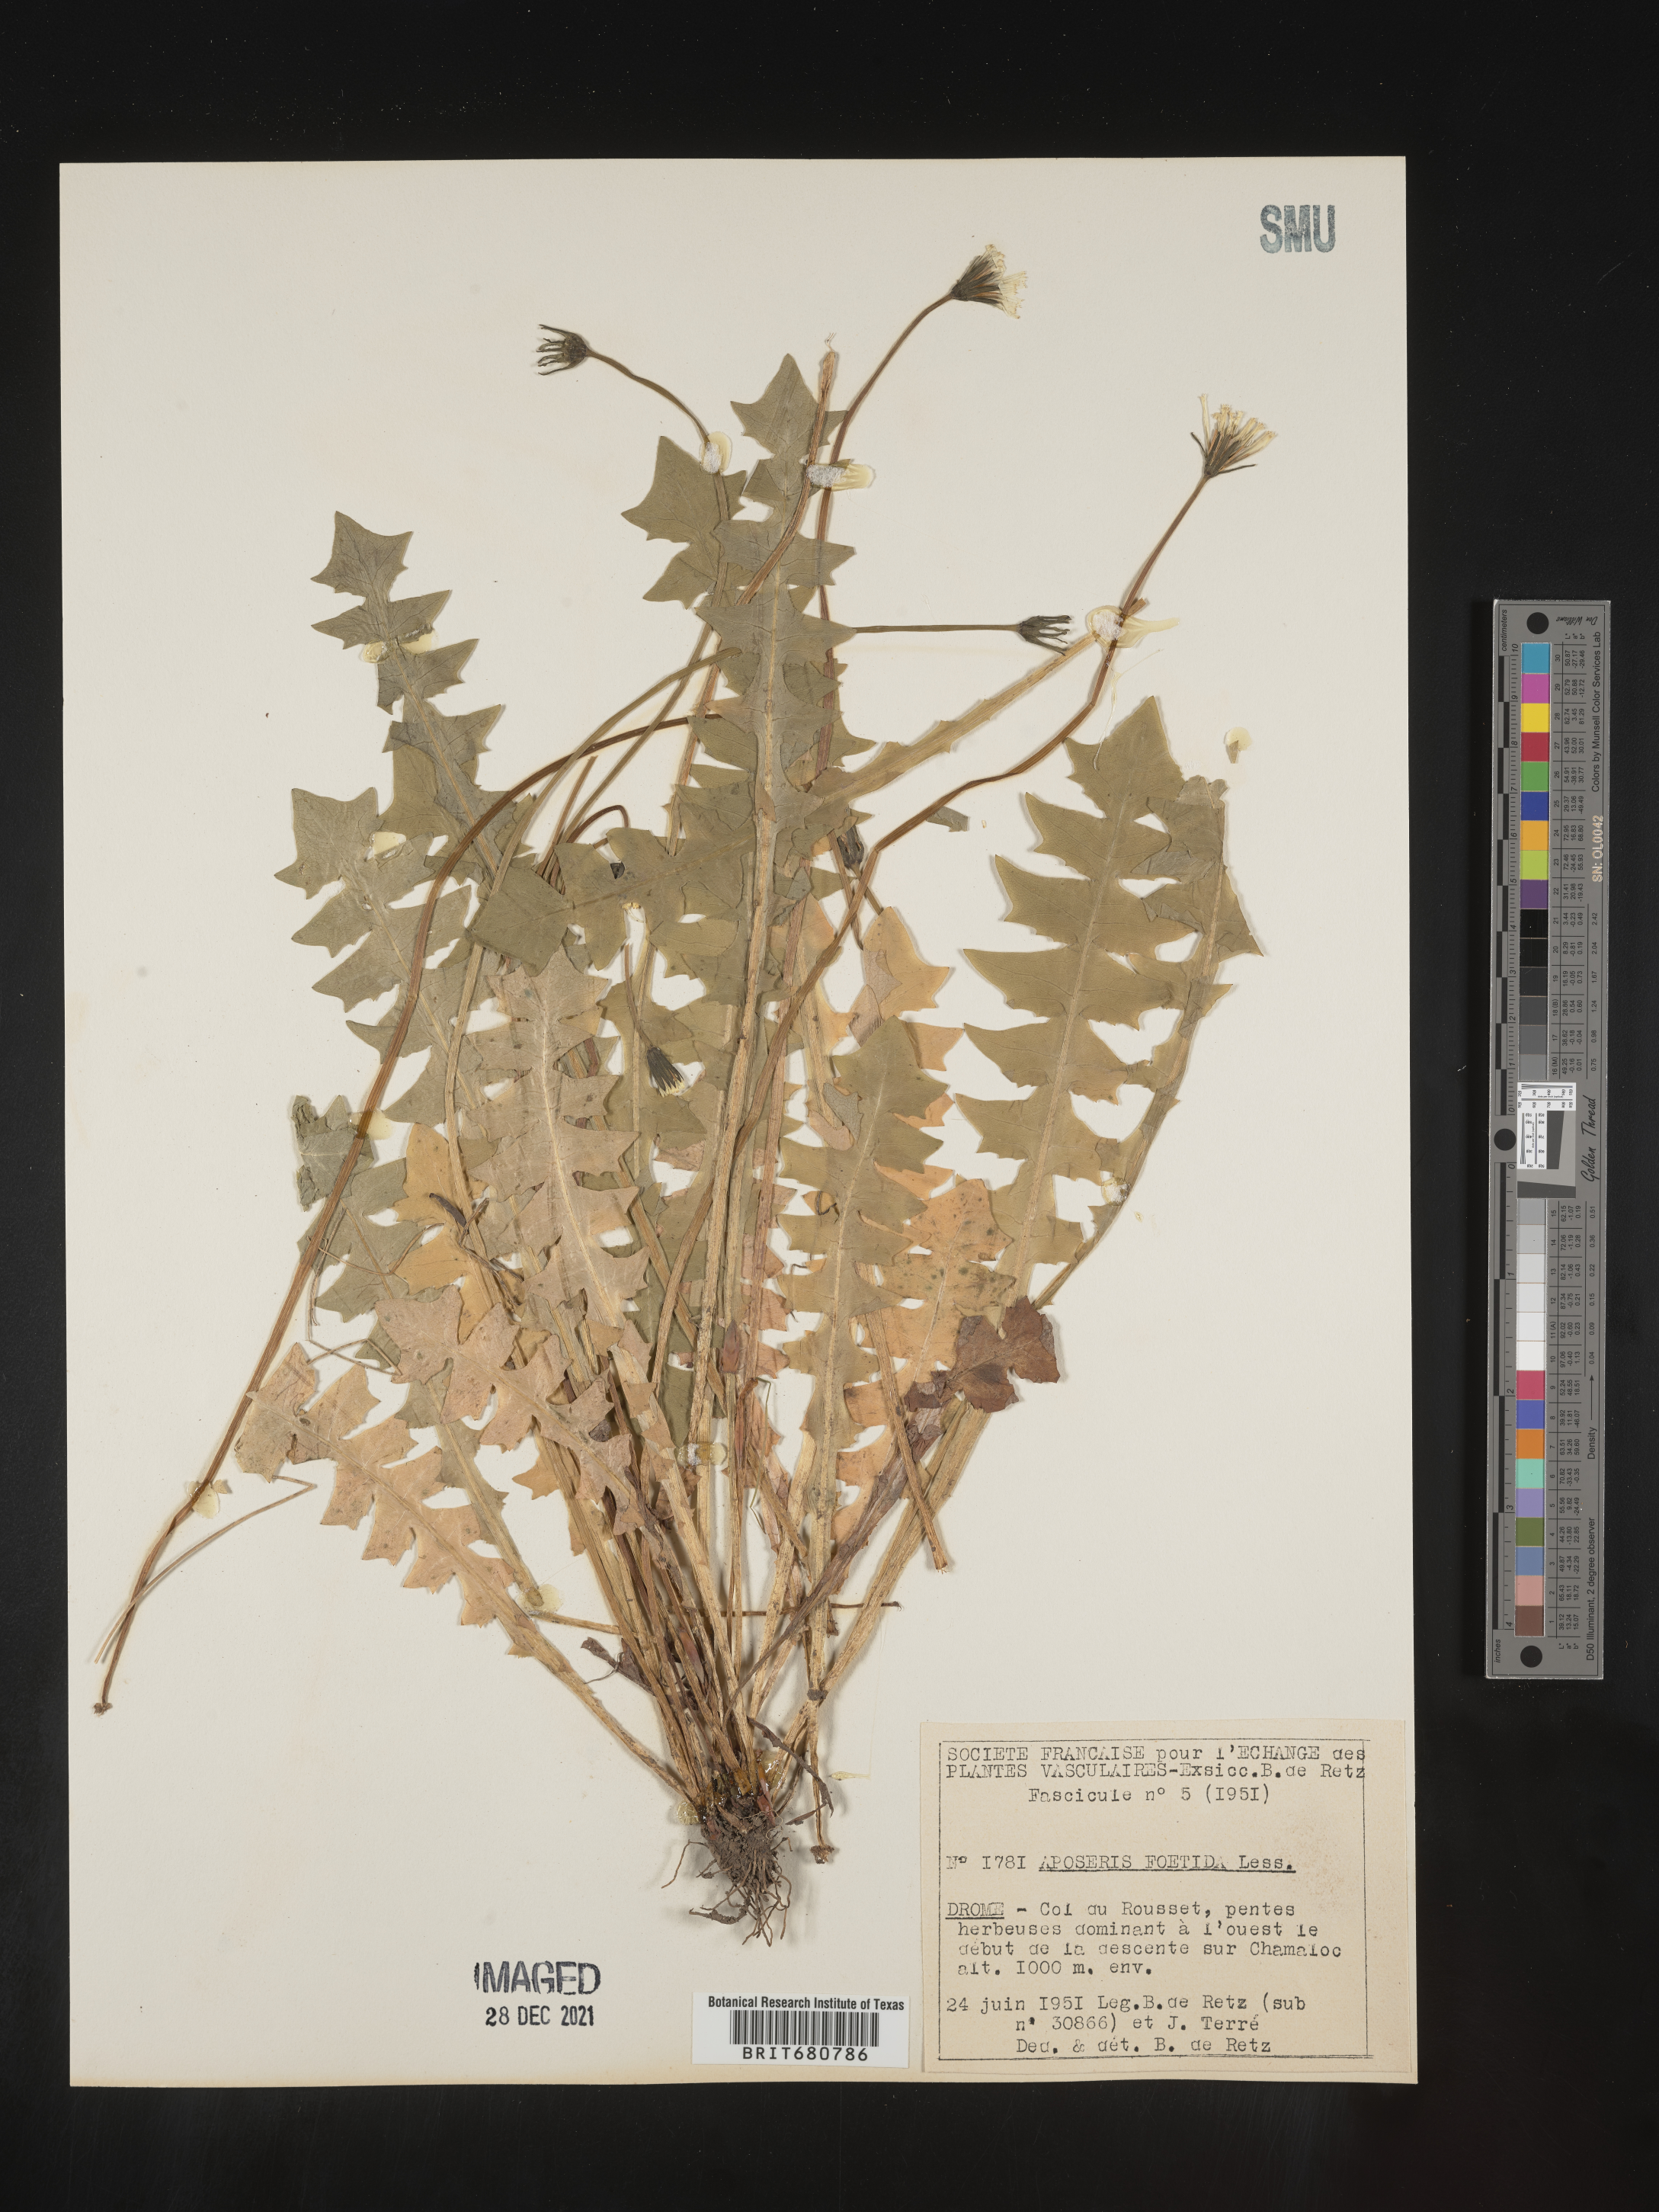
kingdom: Plantae
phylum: Tracheophyta
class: Magnoliopsida
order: Asterales
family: Asteraceae
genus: Aposeris
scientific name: Aposeris
